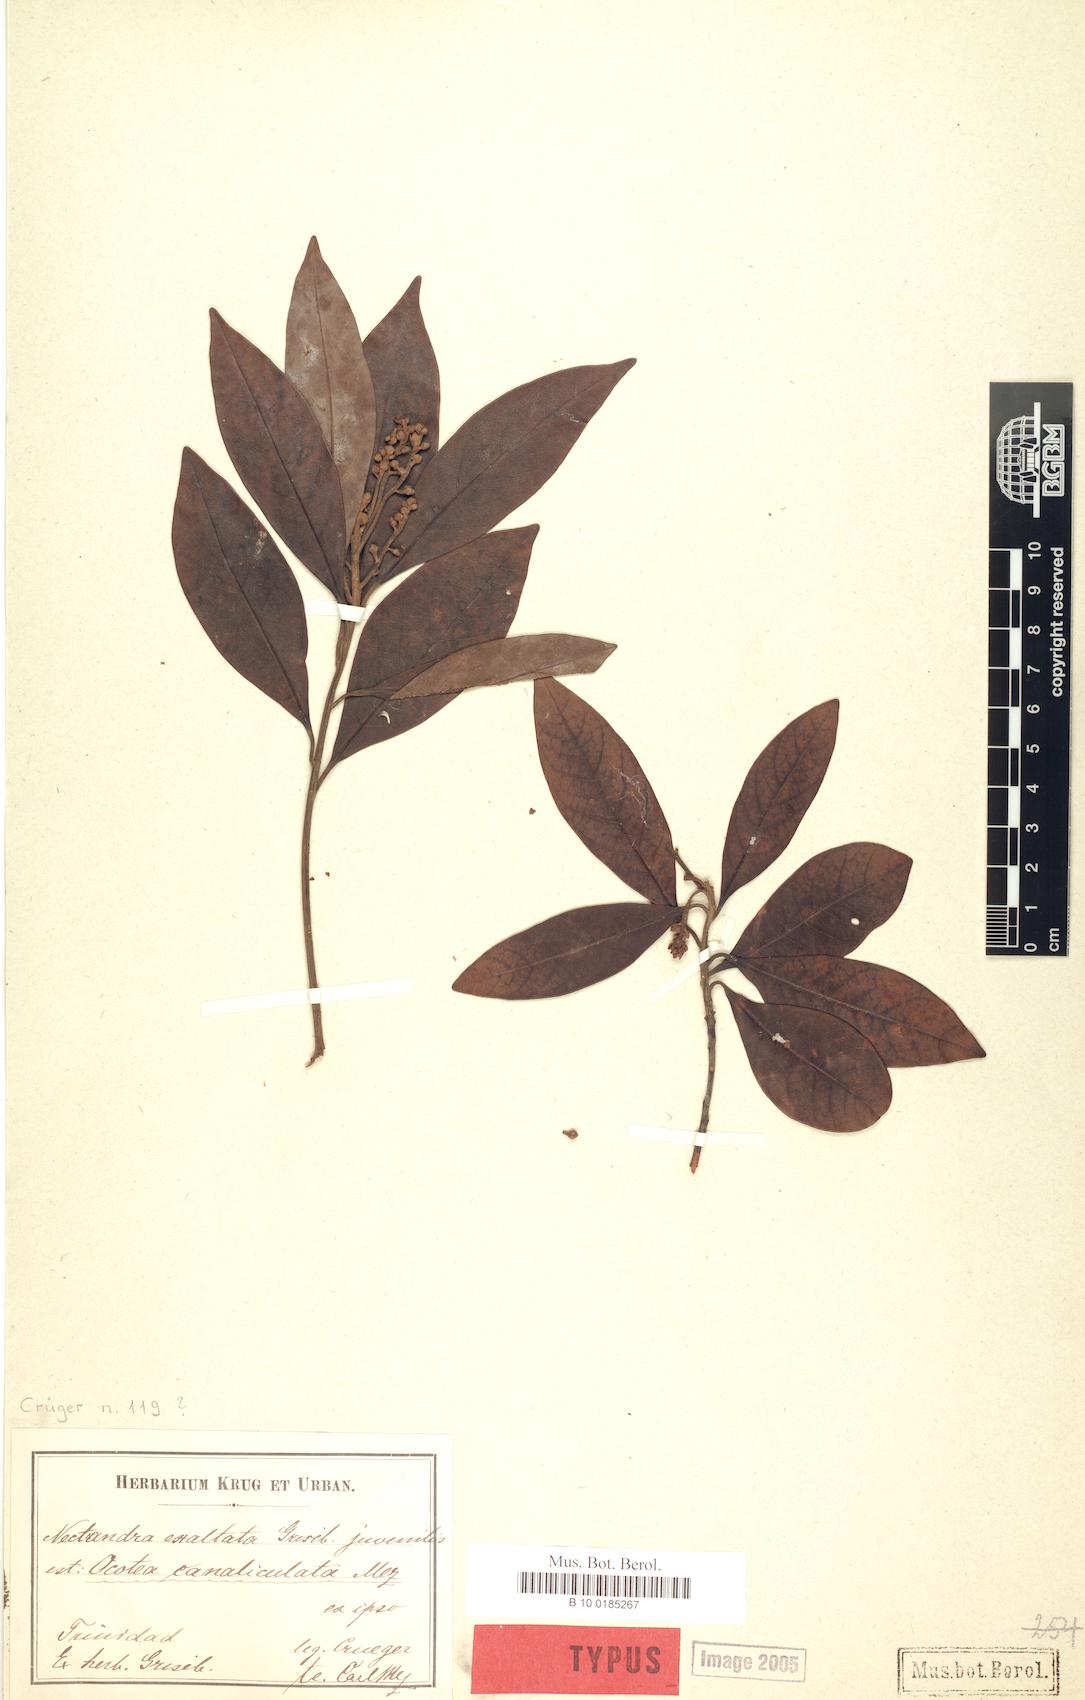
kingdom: Plantae
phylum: Tracheophyta
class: Magnoliopsida
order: Laurales
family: Lauraceae
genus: Ocotea
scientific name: Ocotea canaliculata
